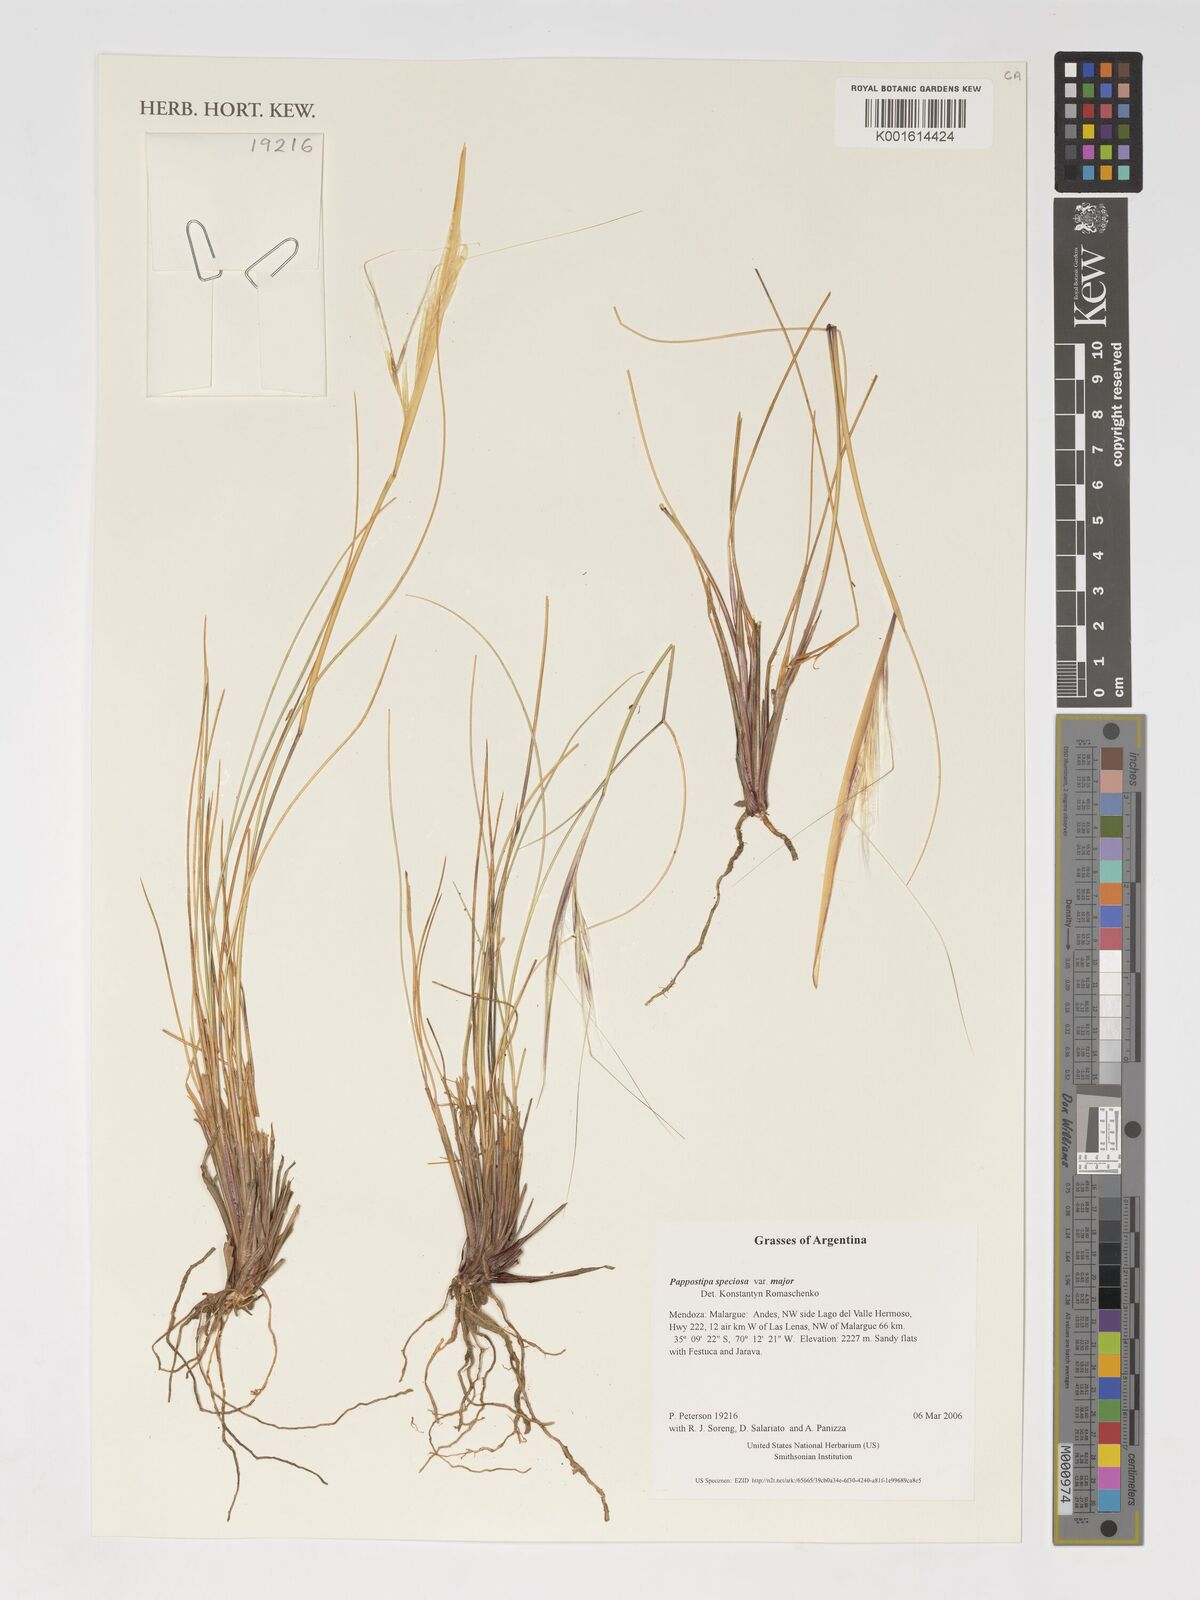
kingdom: Plantae
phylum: Tracheophyta
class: Liliopsida
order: Poales
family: Poaceae
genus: Pappostipa
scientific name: Pappostipa speciosa
